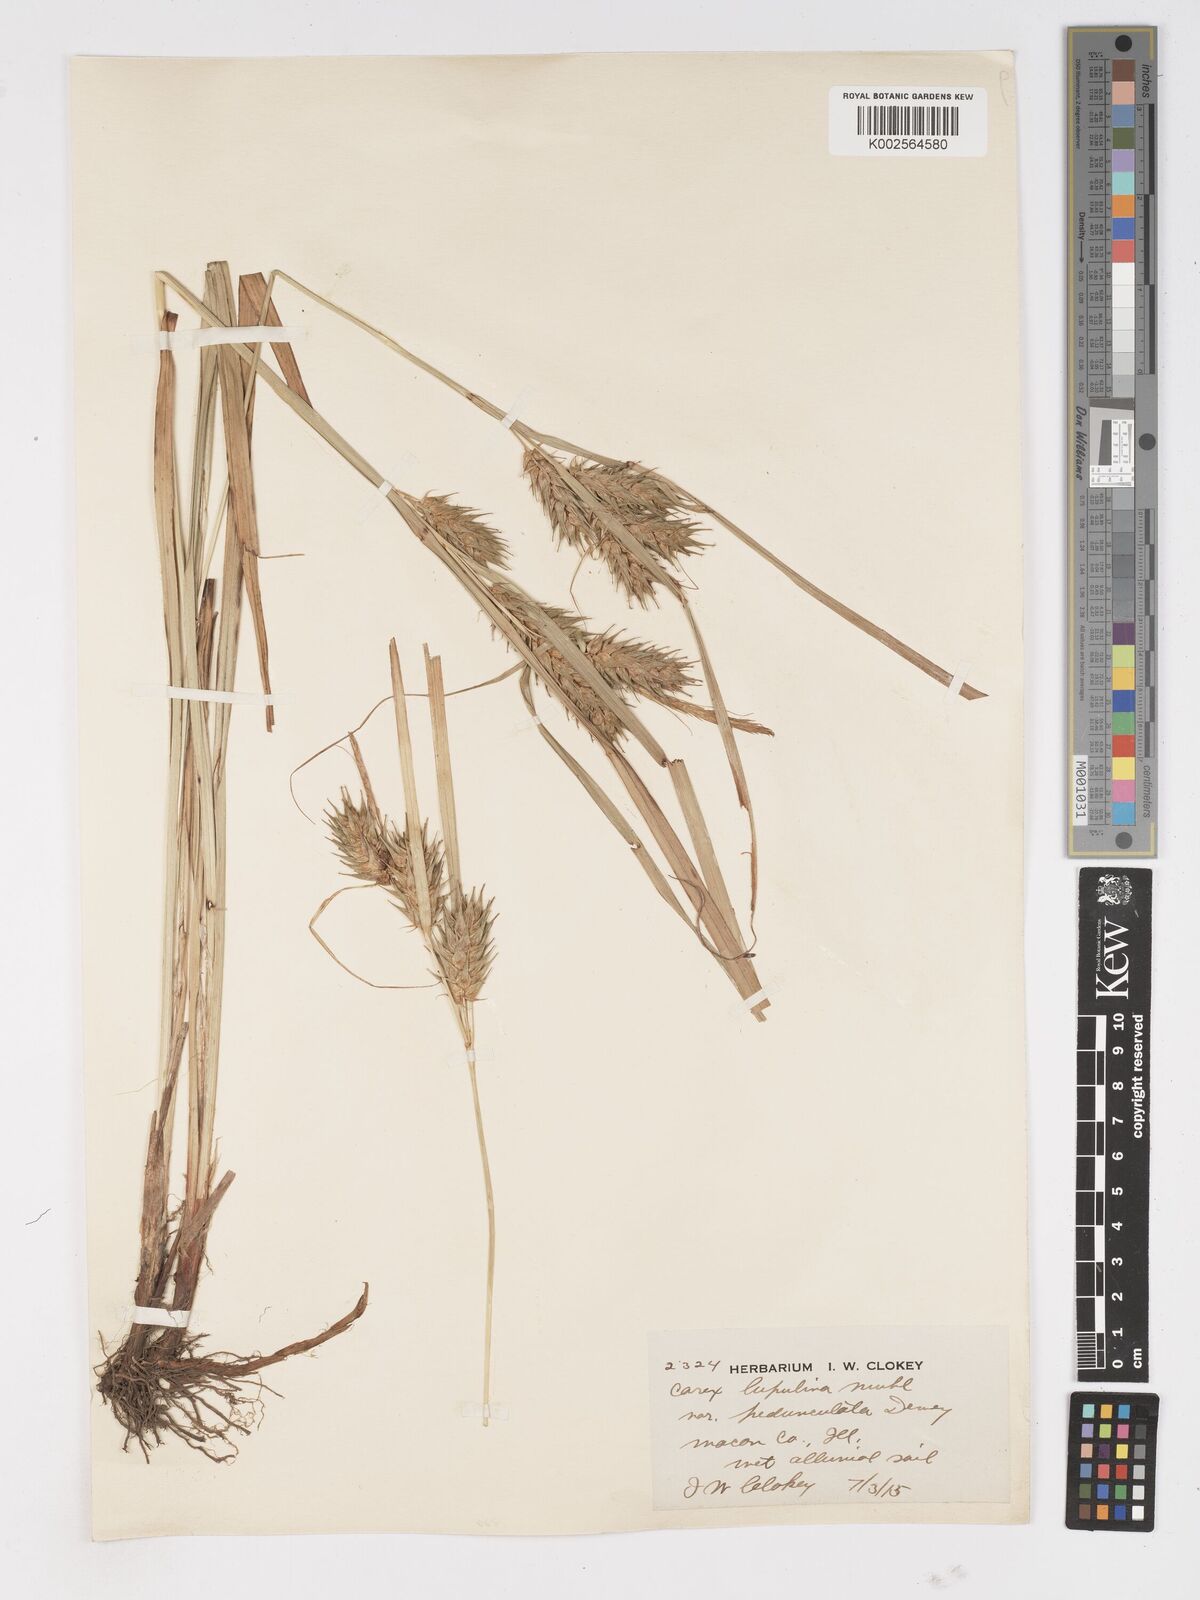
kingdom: Plantae
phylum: Tracheophyta
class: Liliopsida
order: Poales
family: Cyperaceae
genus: Carex
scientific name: Carex lupulina
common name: Hop sedge
